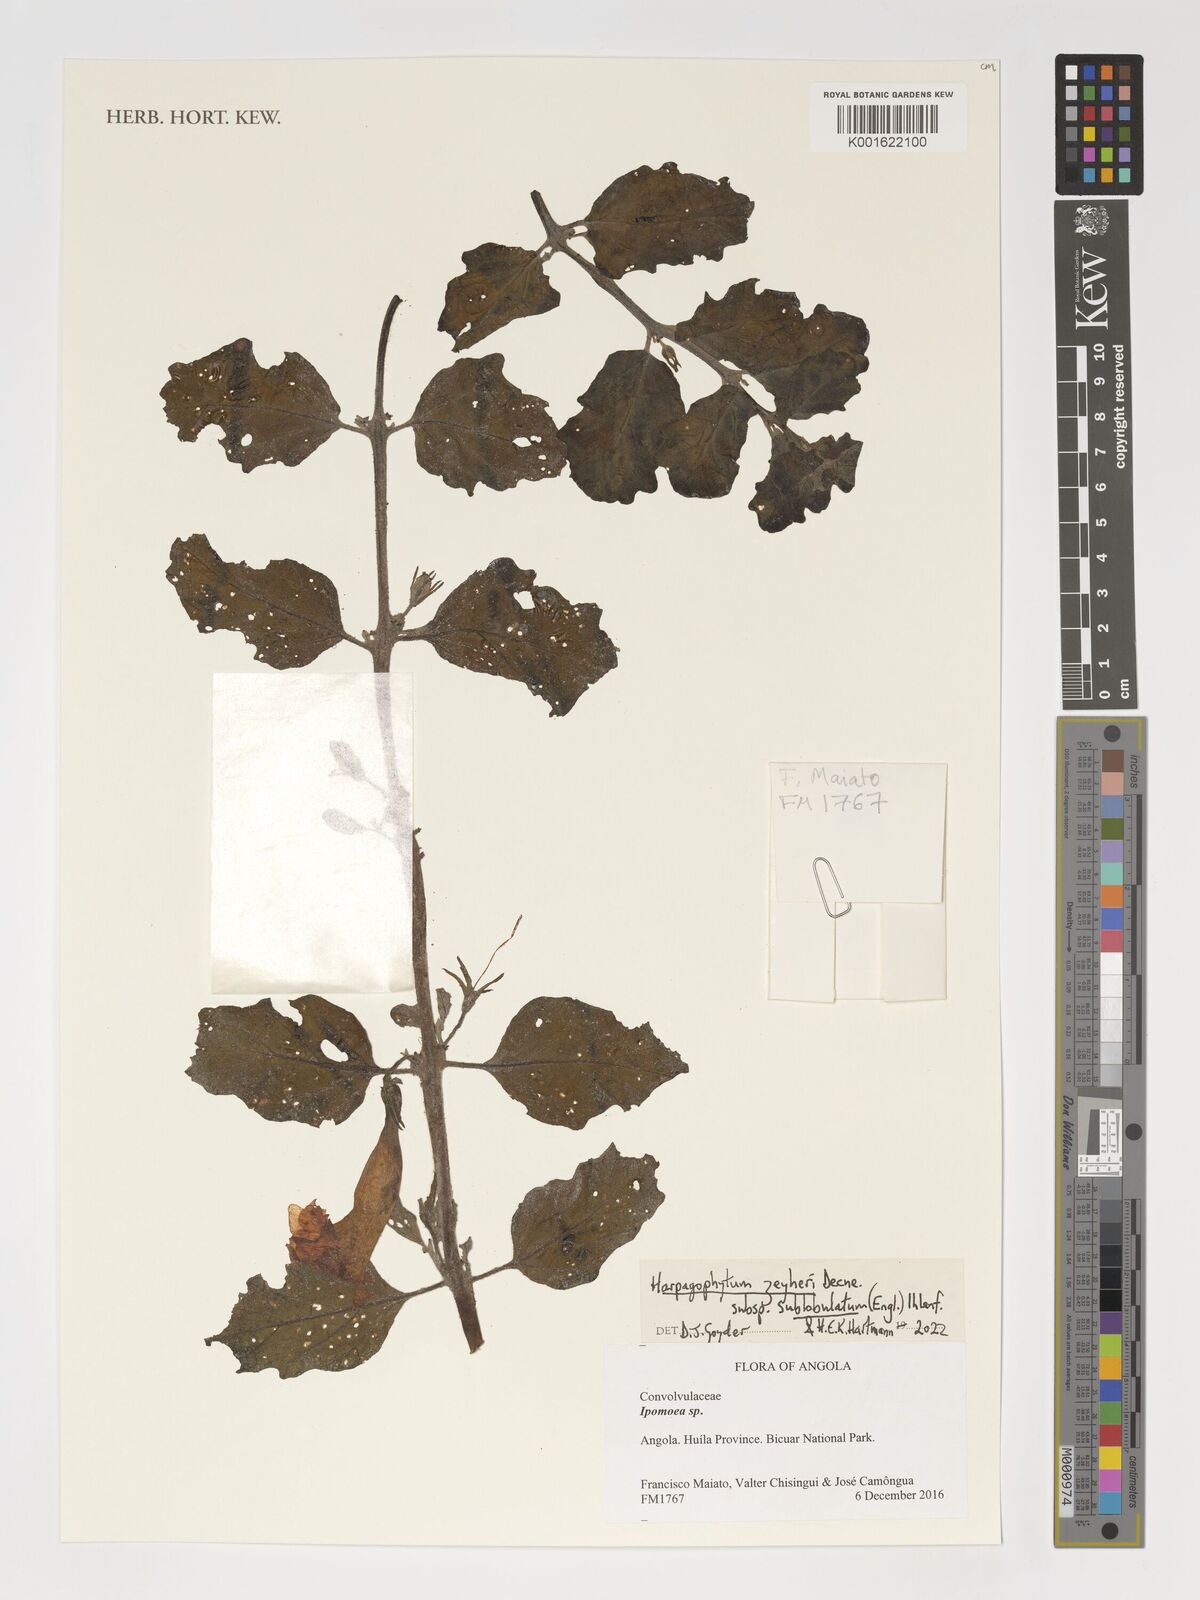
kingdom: Plantae
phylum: Tracheophyta
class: Magnoliopsida
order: Lamiales
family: Pedaliaceae
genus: Harpagophytum
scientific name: Harpagophytum zeyheri
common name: Grappleplant
